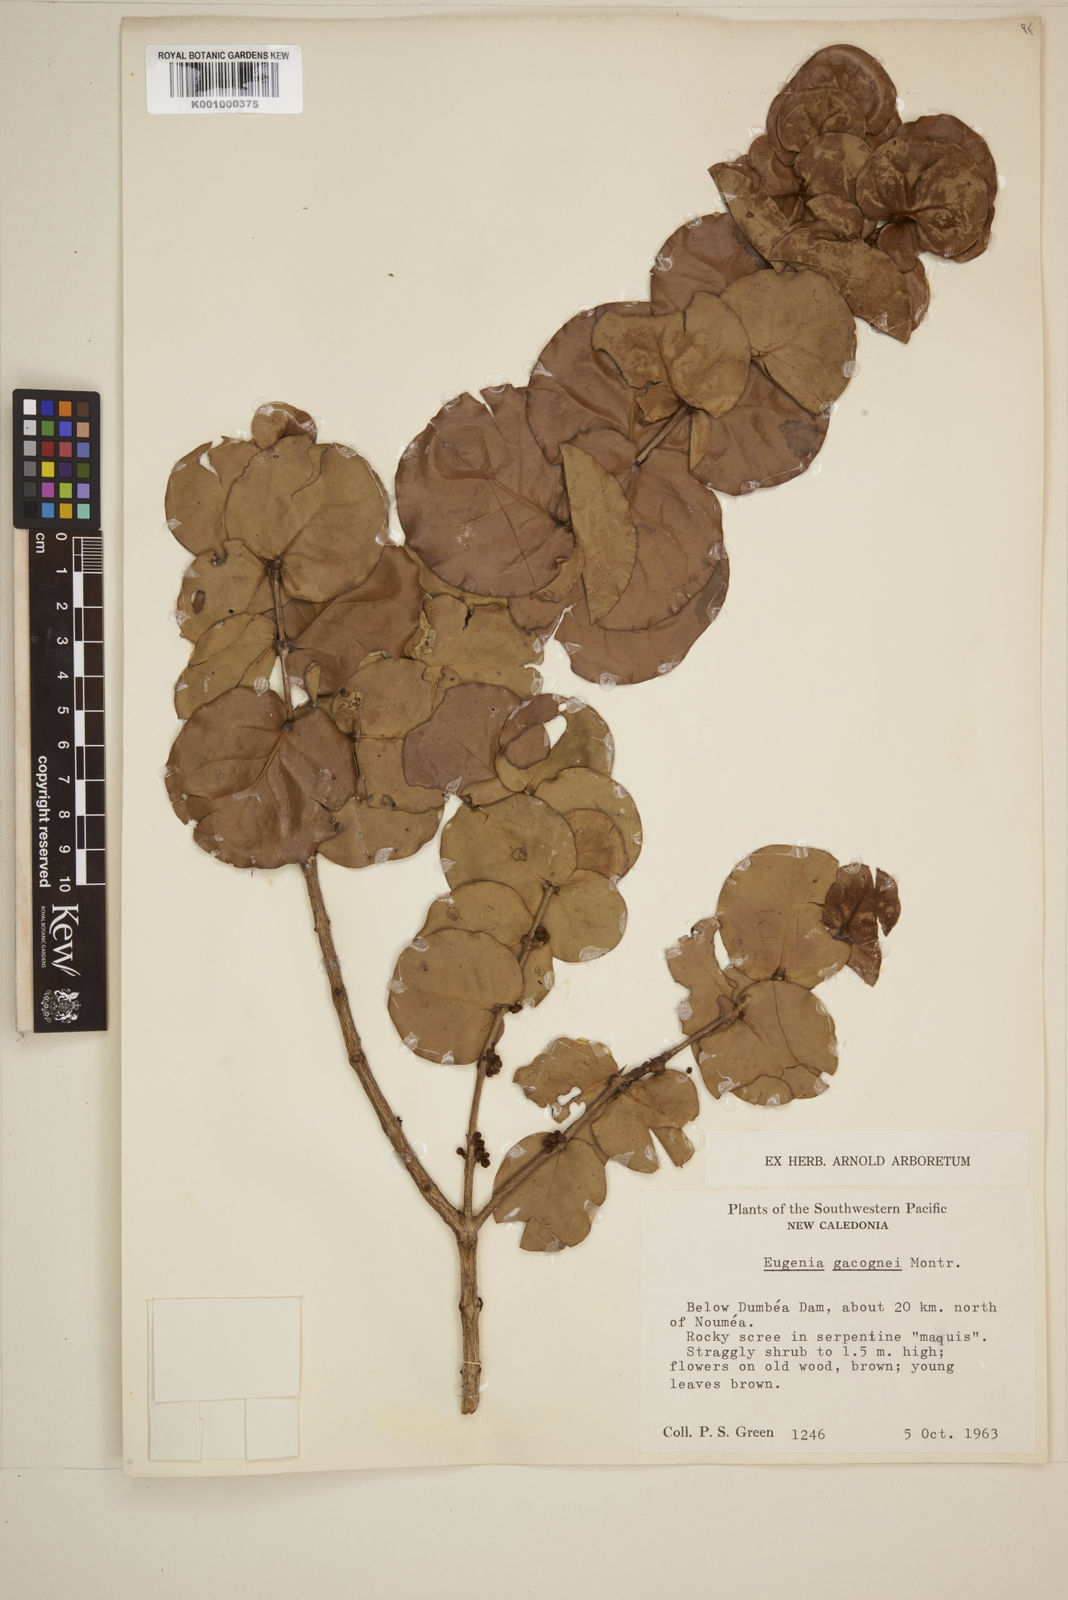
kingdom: Plantae
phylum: Tracheophyta
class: Magnoliopsida
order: Myrtales
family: Myrtaceae
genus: Eugenia
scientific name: Eugenia gacognei
